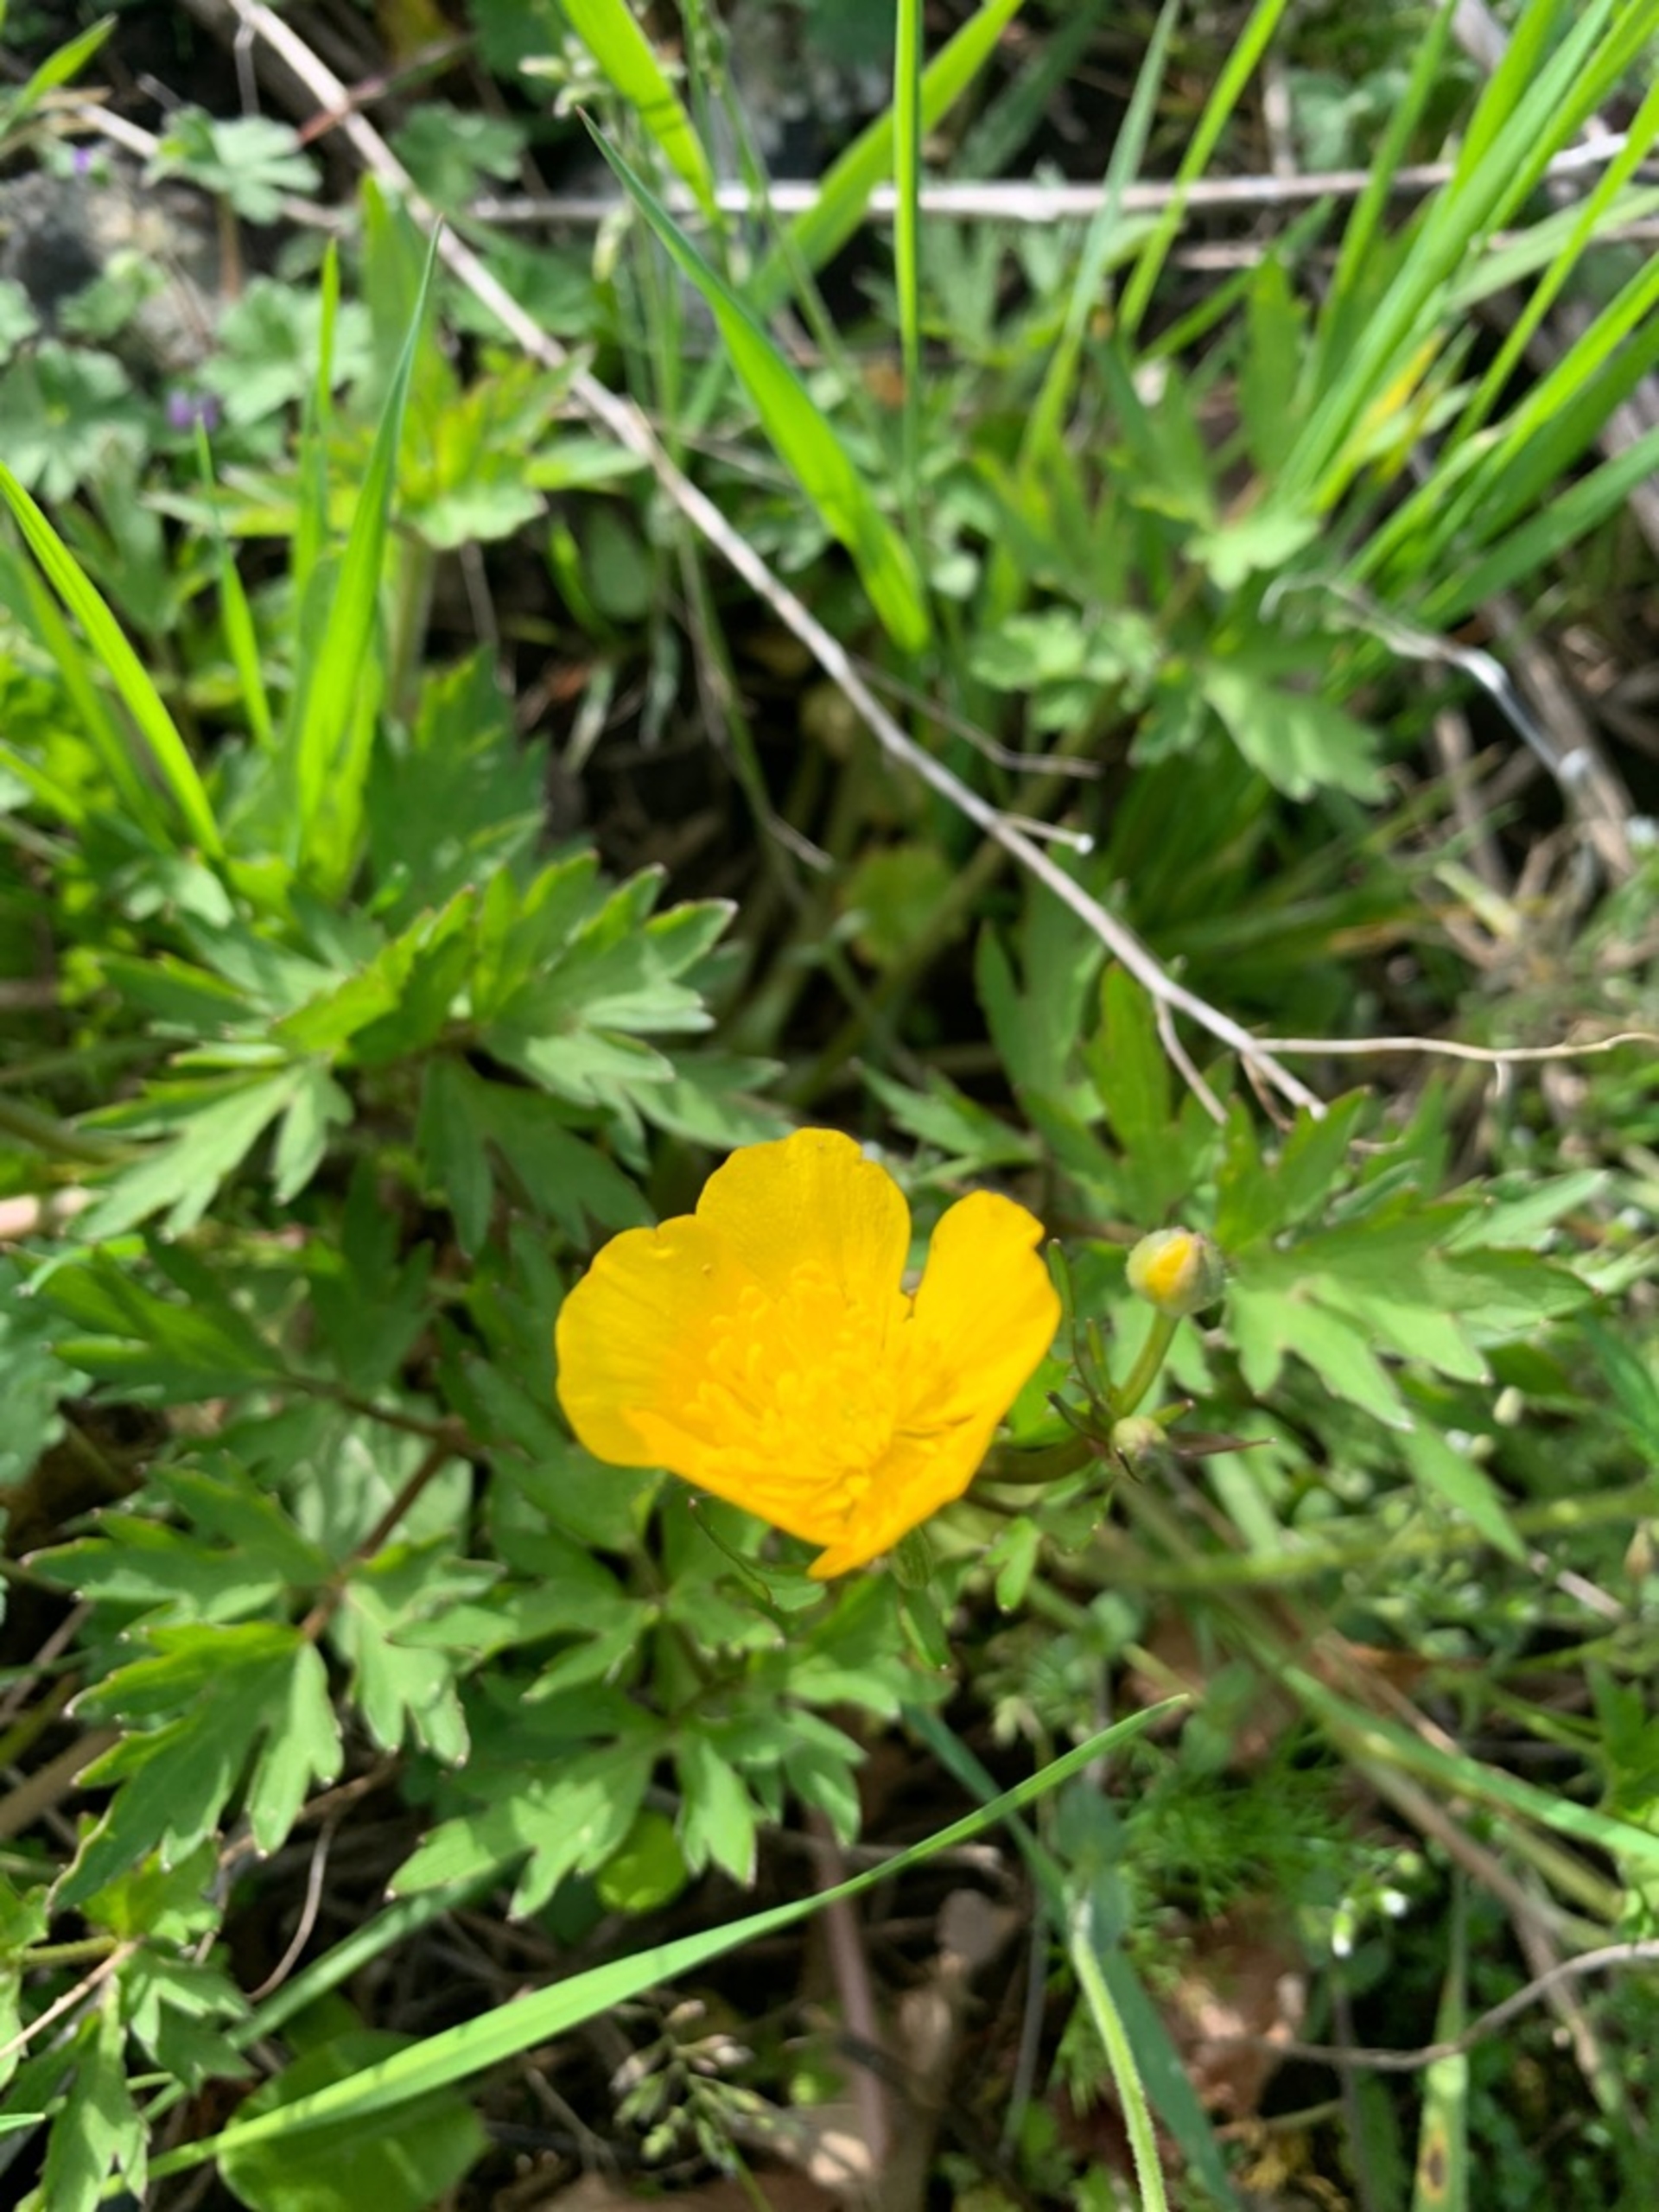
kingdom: Plantae
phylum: Tracheophyta
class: Magnoliopsida
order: Ranunculales
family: Ranunculaceae
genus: Ranunculus
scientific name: Ranunculus repens
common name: Lav ranunkel
